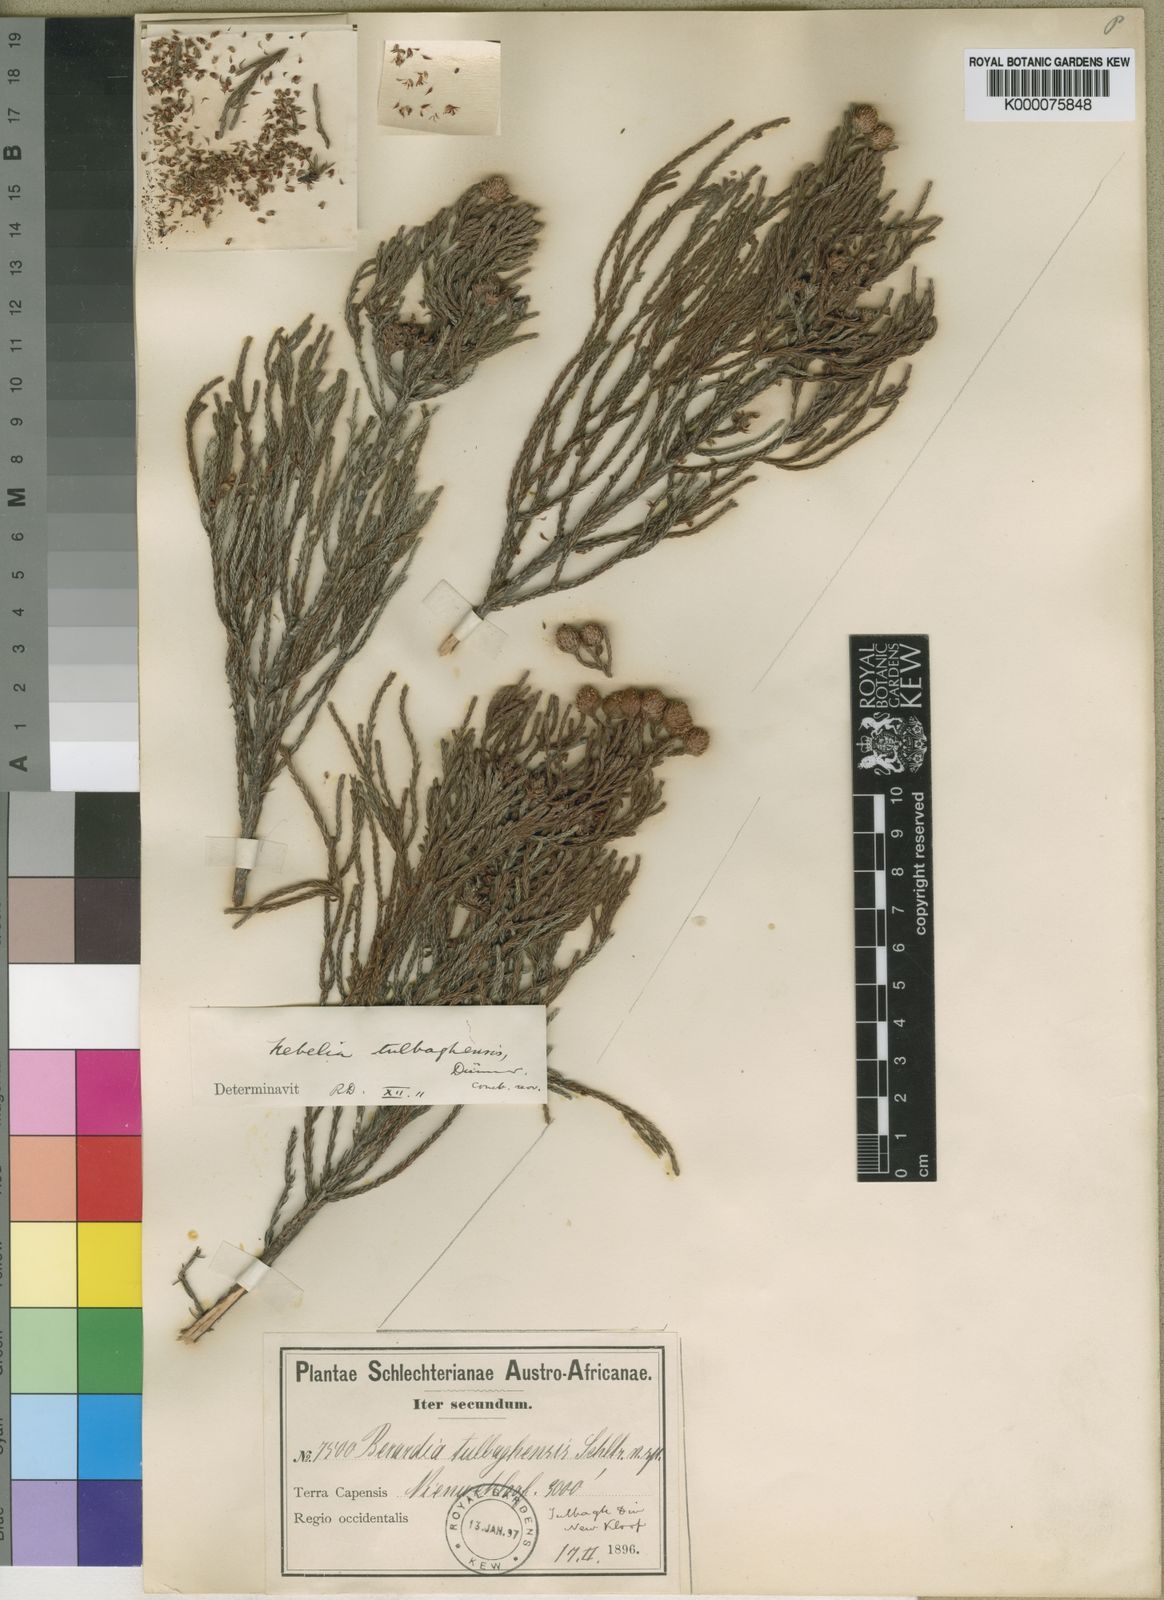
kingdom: Plantae
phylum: Tracheophyta
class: Magnoliopsida
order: Bruniales
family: Bruniaceae
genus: Nebelia
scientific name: Nebelia
